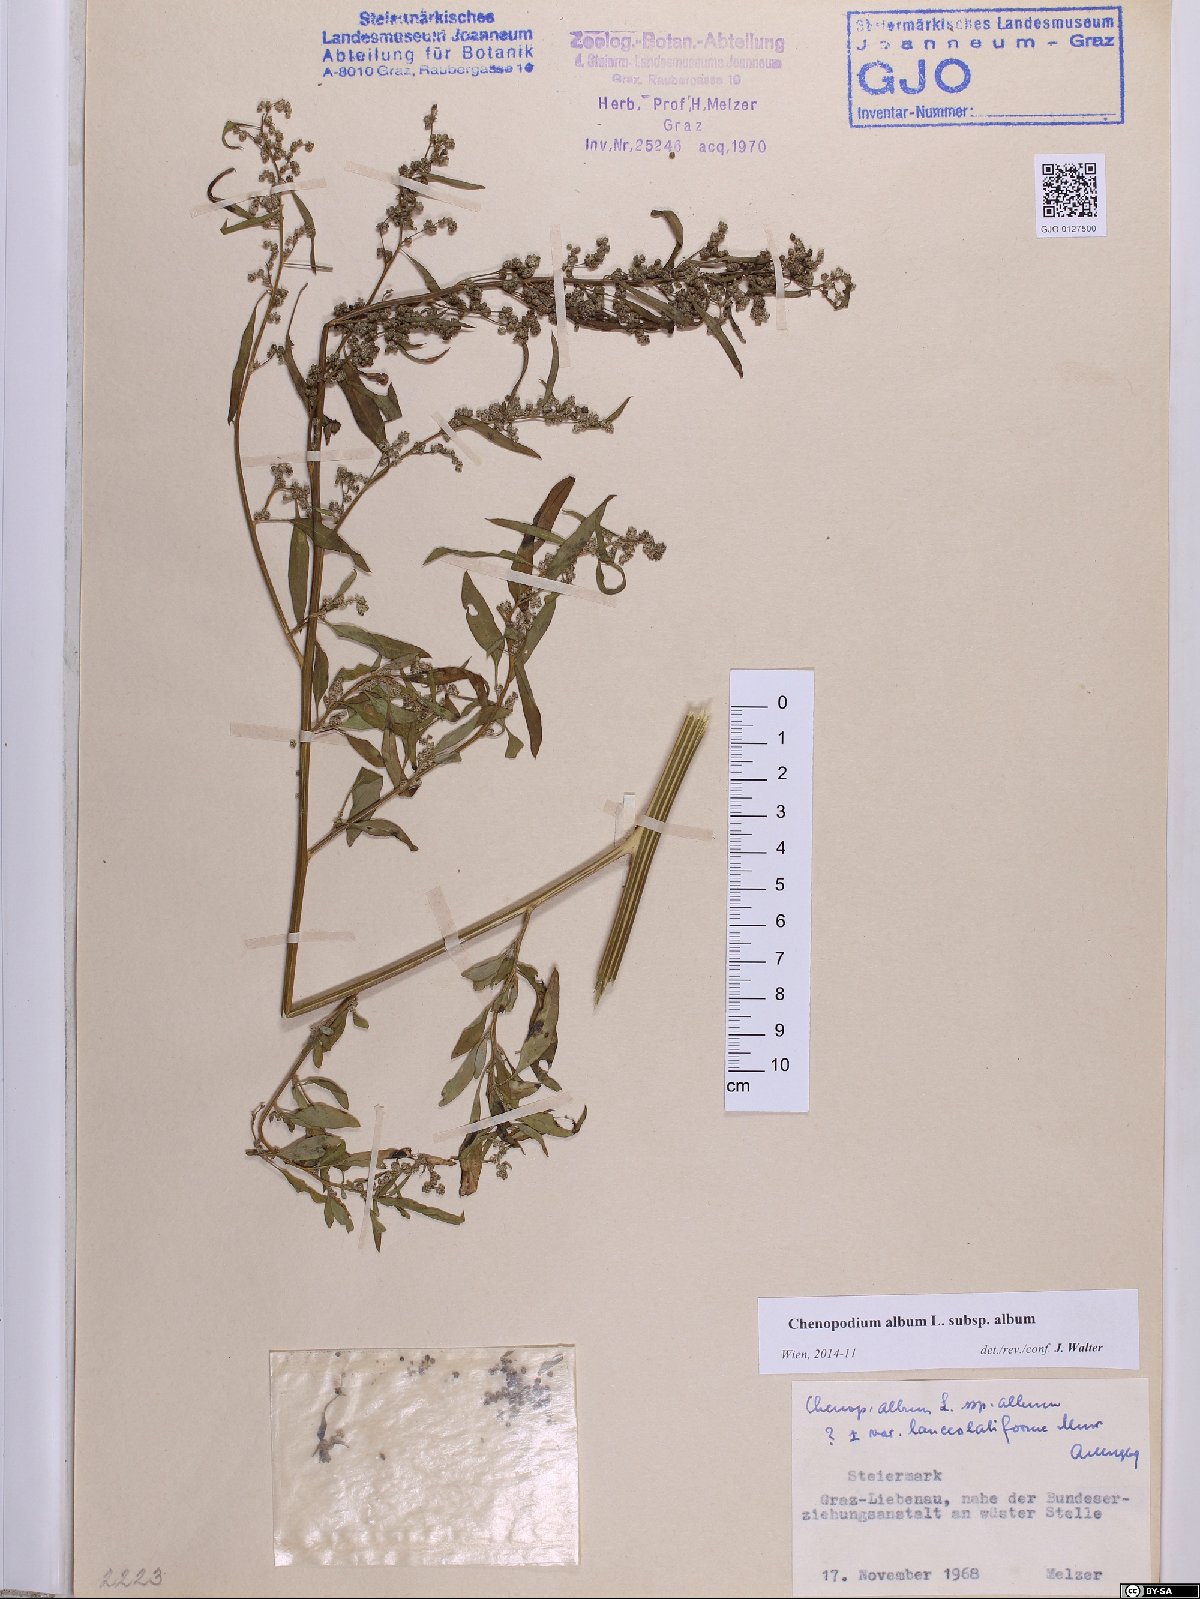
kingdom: Plantae
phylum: Tracheophyta
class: Magnoliopsida
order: Caryophyllales
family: Amaranthaceae
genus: Chenopodium
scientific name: Chenopodium album
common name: Fat-hen
